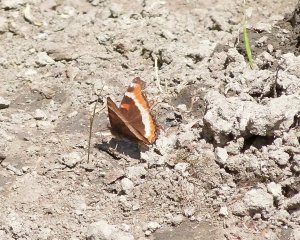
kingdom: Animalia
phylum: Arthropoda
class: Insecta
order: Lepidoptera
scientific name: Lepidoptera
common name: Butterflies
